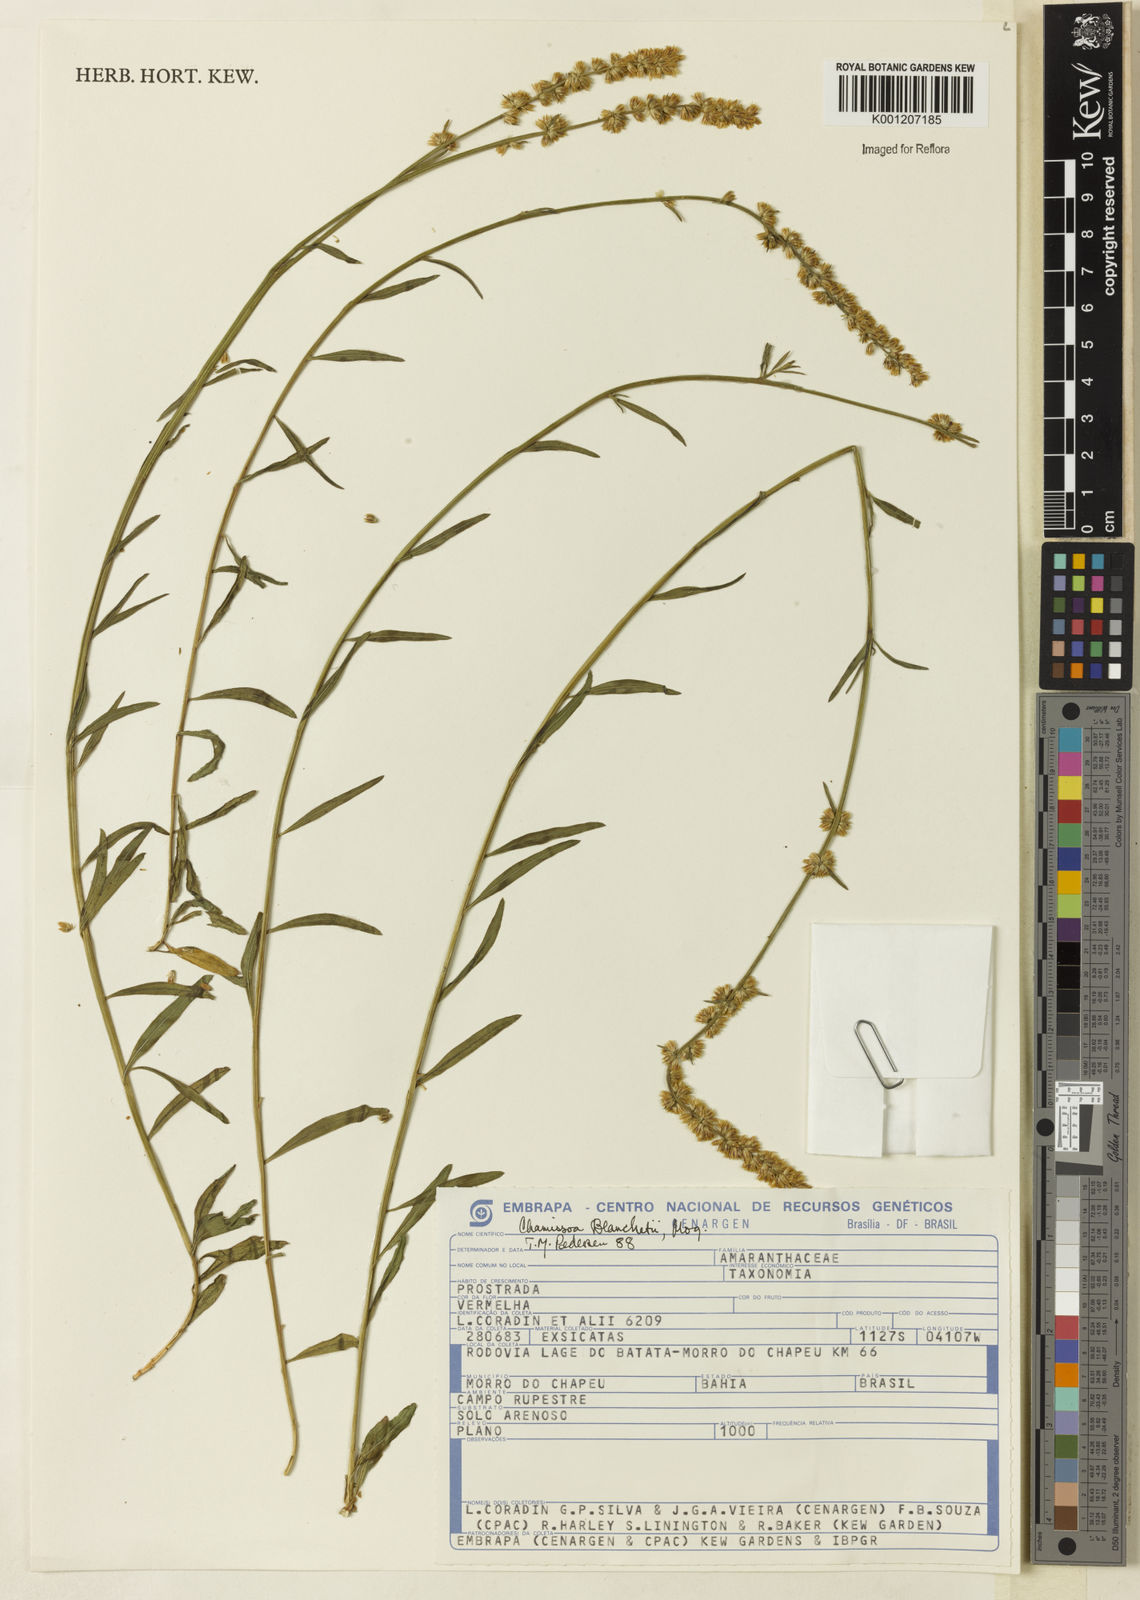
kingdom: Plantae
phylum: Tracheophyta
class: Magnoliopsida
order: Caryophyllales
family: Amaranthaceae
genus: Chamissoa
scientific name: Chamissoa acuminata
